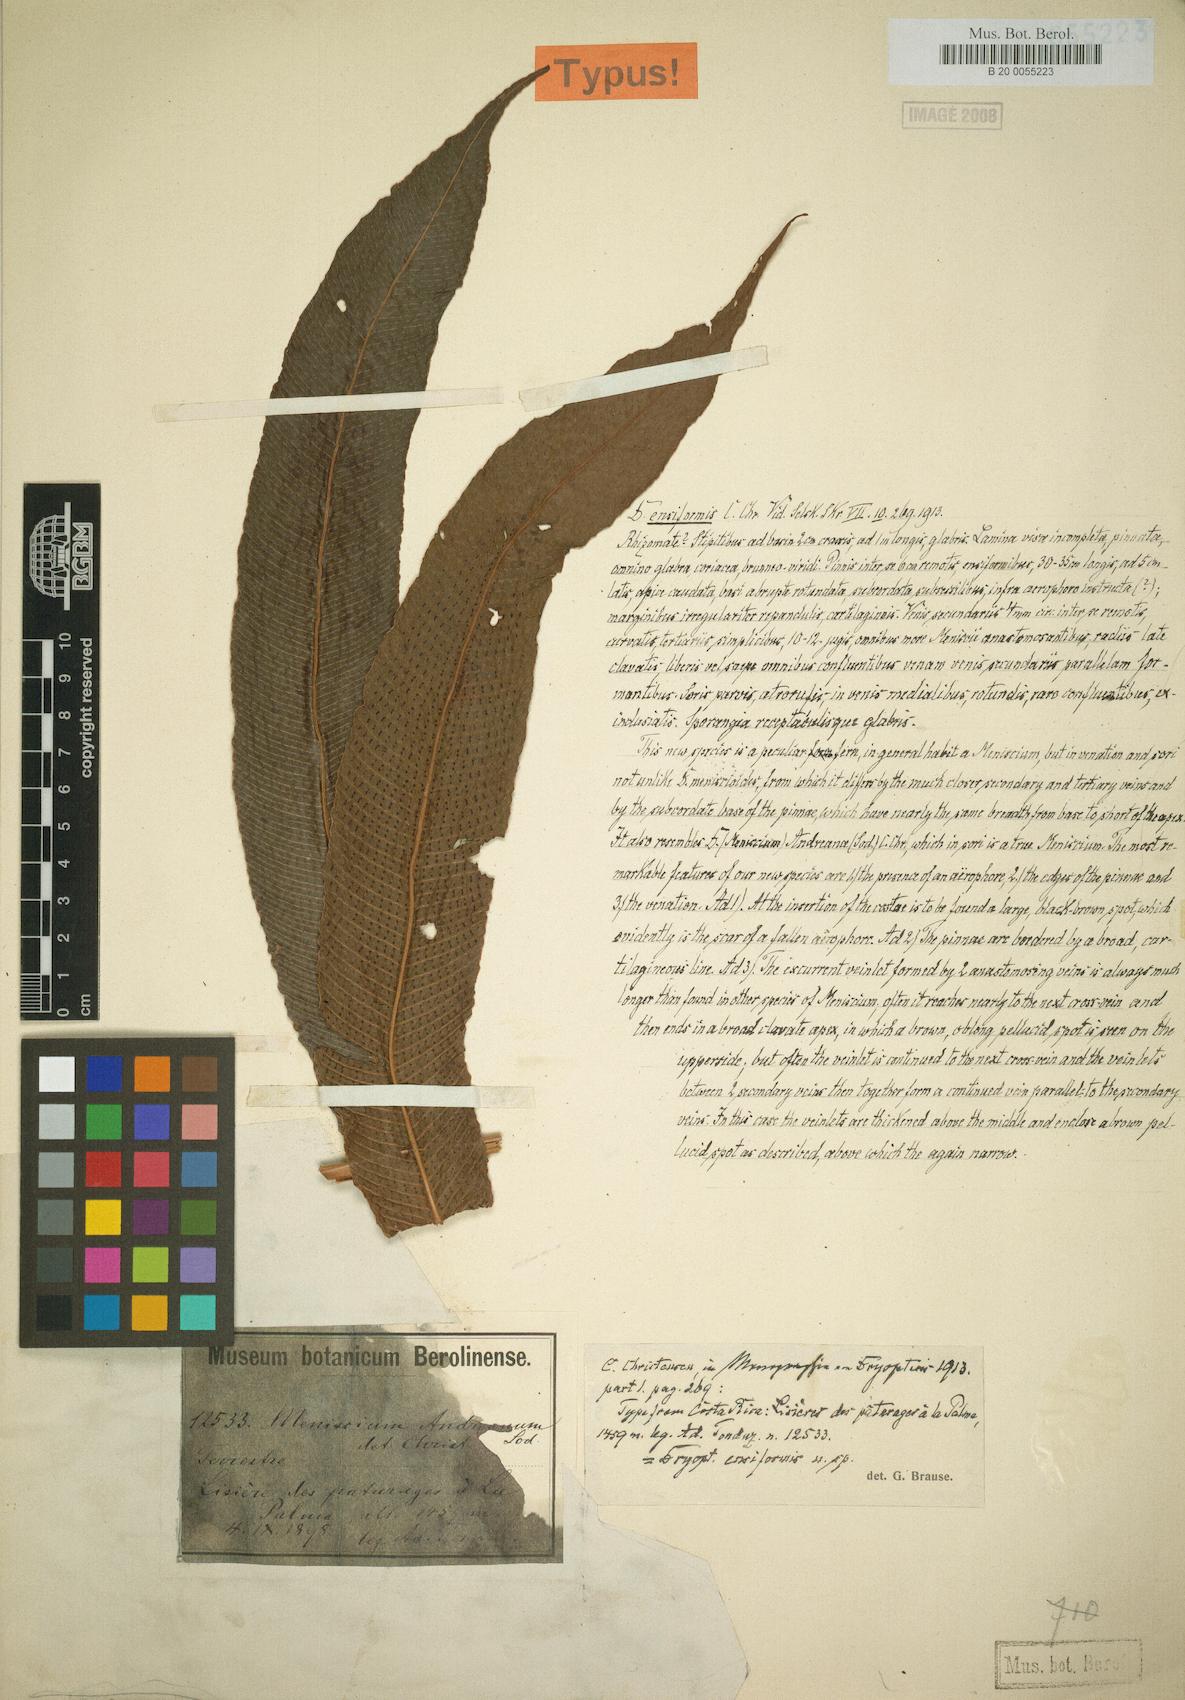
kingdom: Plantae
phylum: Tracheophyta
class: Polypodiopsida
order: Polypodiales
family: Thelypteridaceae
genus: Meniscium
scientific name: Meniscium andreanum
